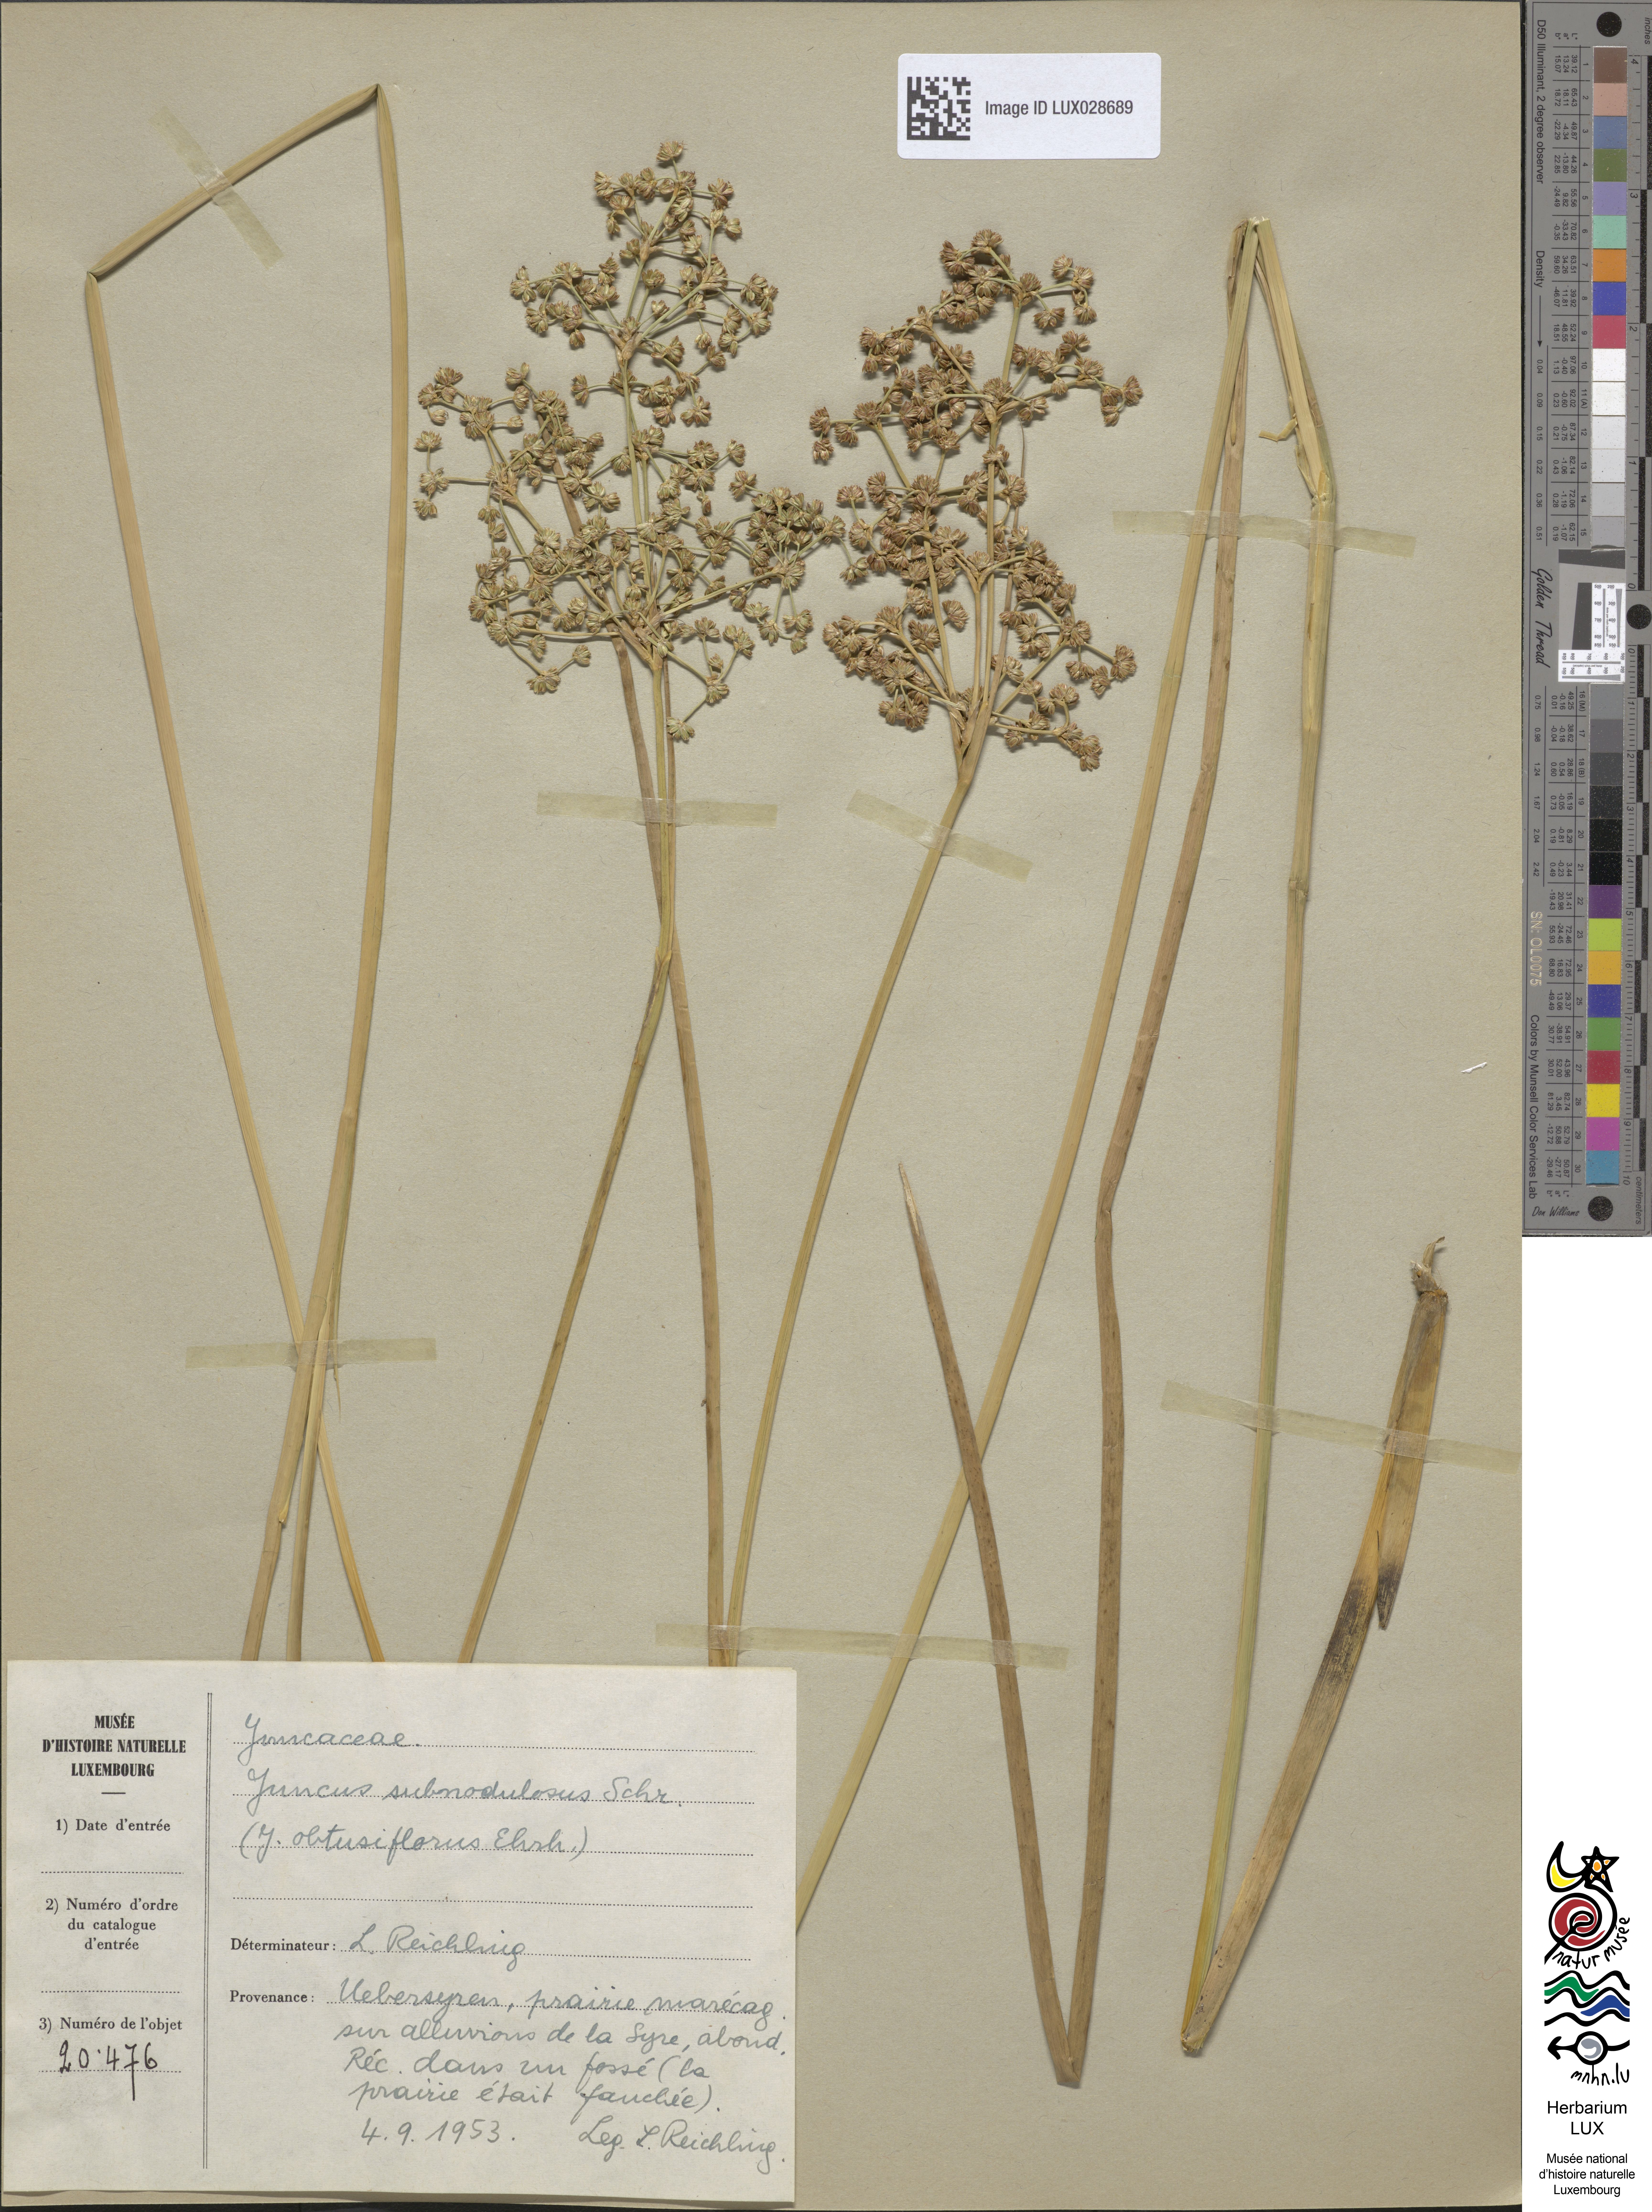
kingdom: Plantae
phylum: Tracheophyta
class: Liliopsida
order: Poales
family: Juncaceae
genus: Juncus
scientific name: Juncus subnodulosus
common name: Blunt-flowered rush
